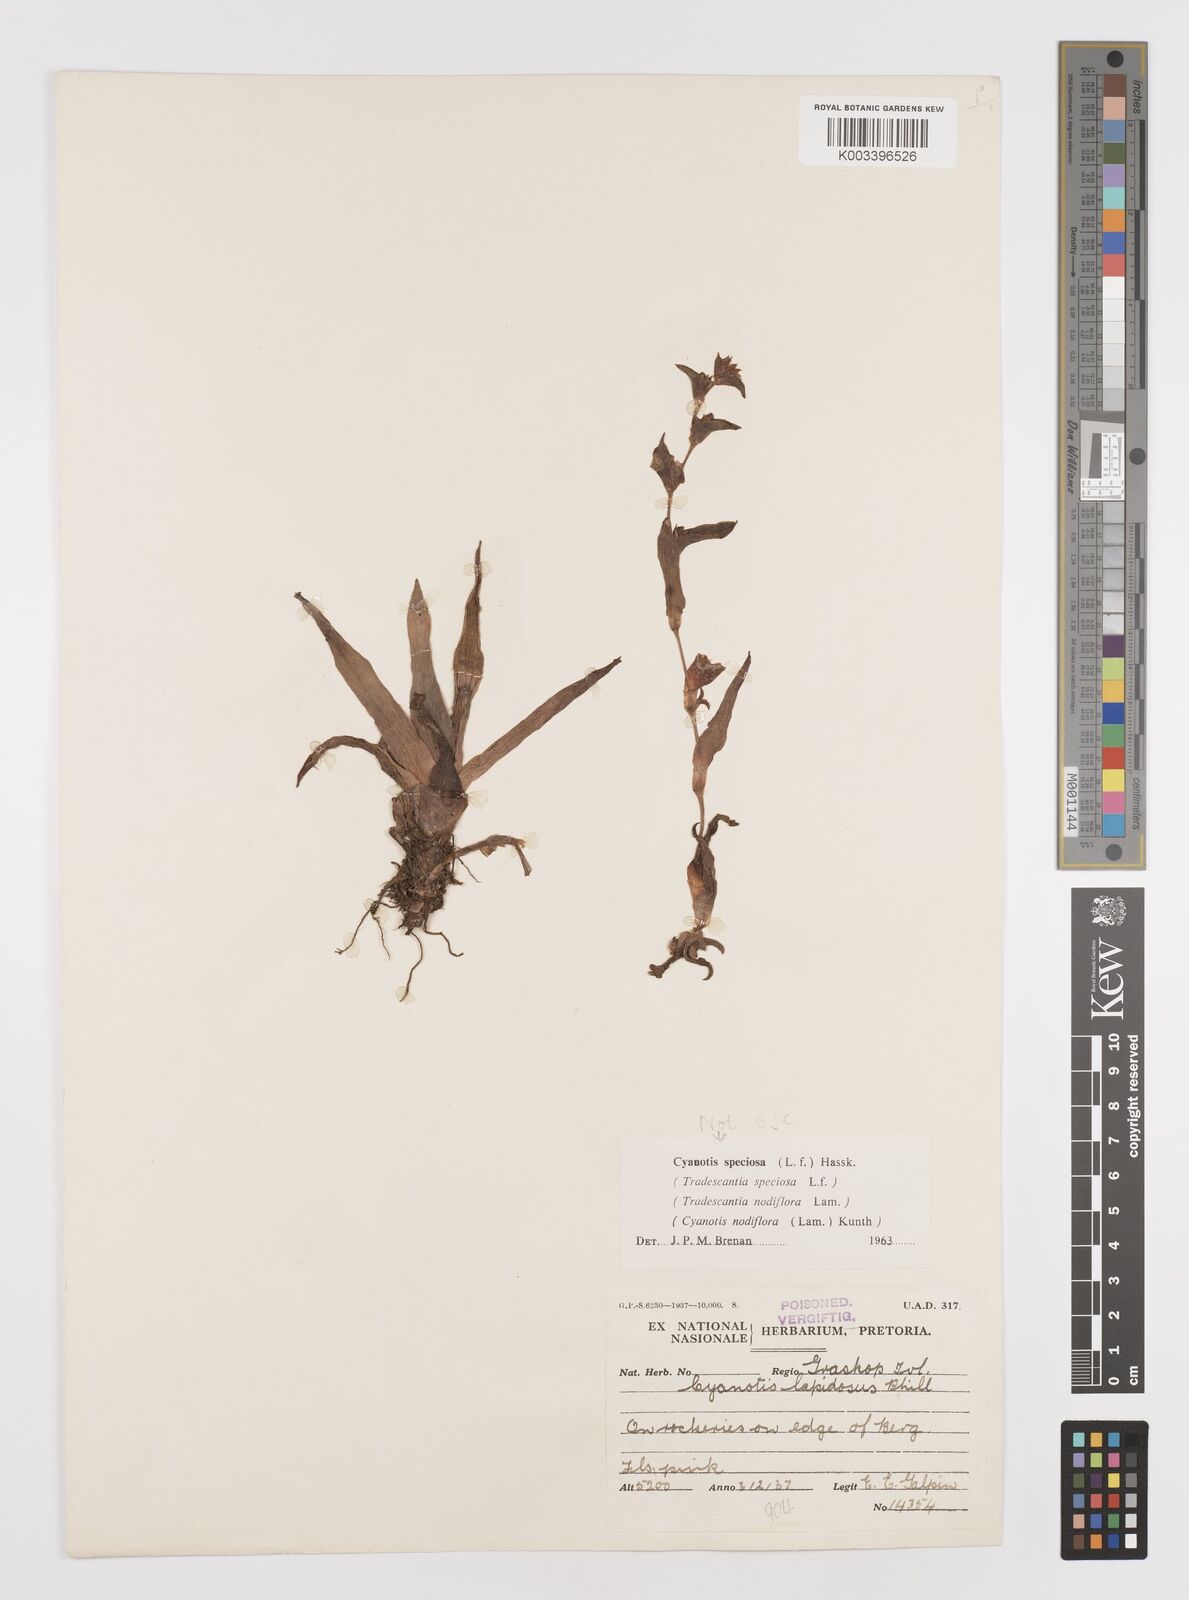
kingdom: Plantae
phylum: Tracheophyta
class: Liliopsida
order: Commelinales
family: Commelinaceae
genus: Cyanotis
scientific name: Cyanotis lapidosa
